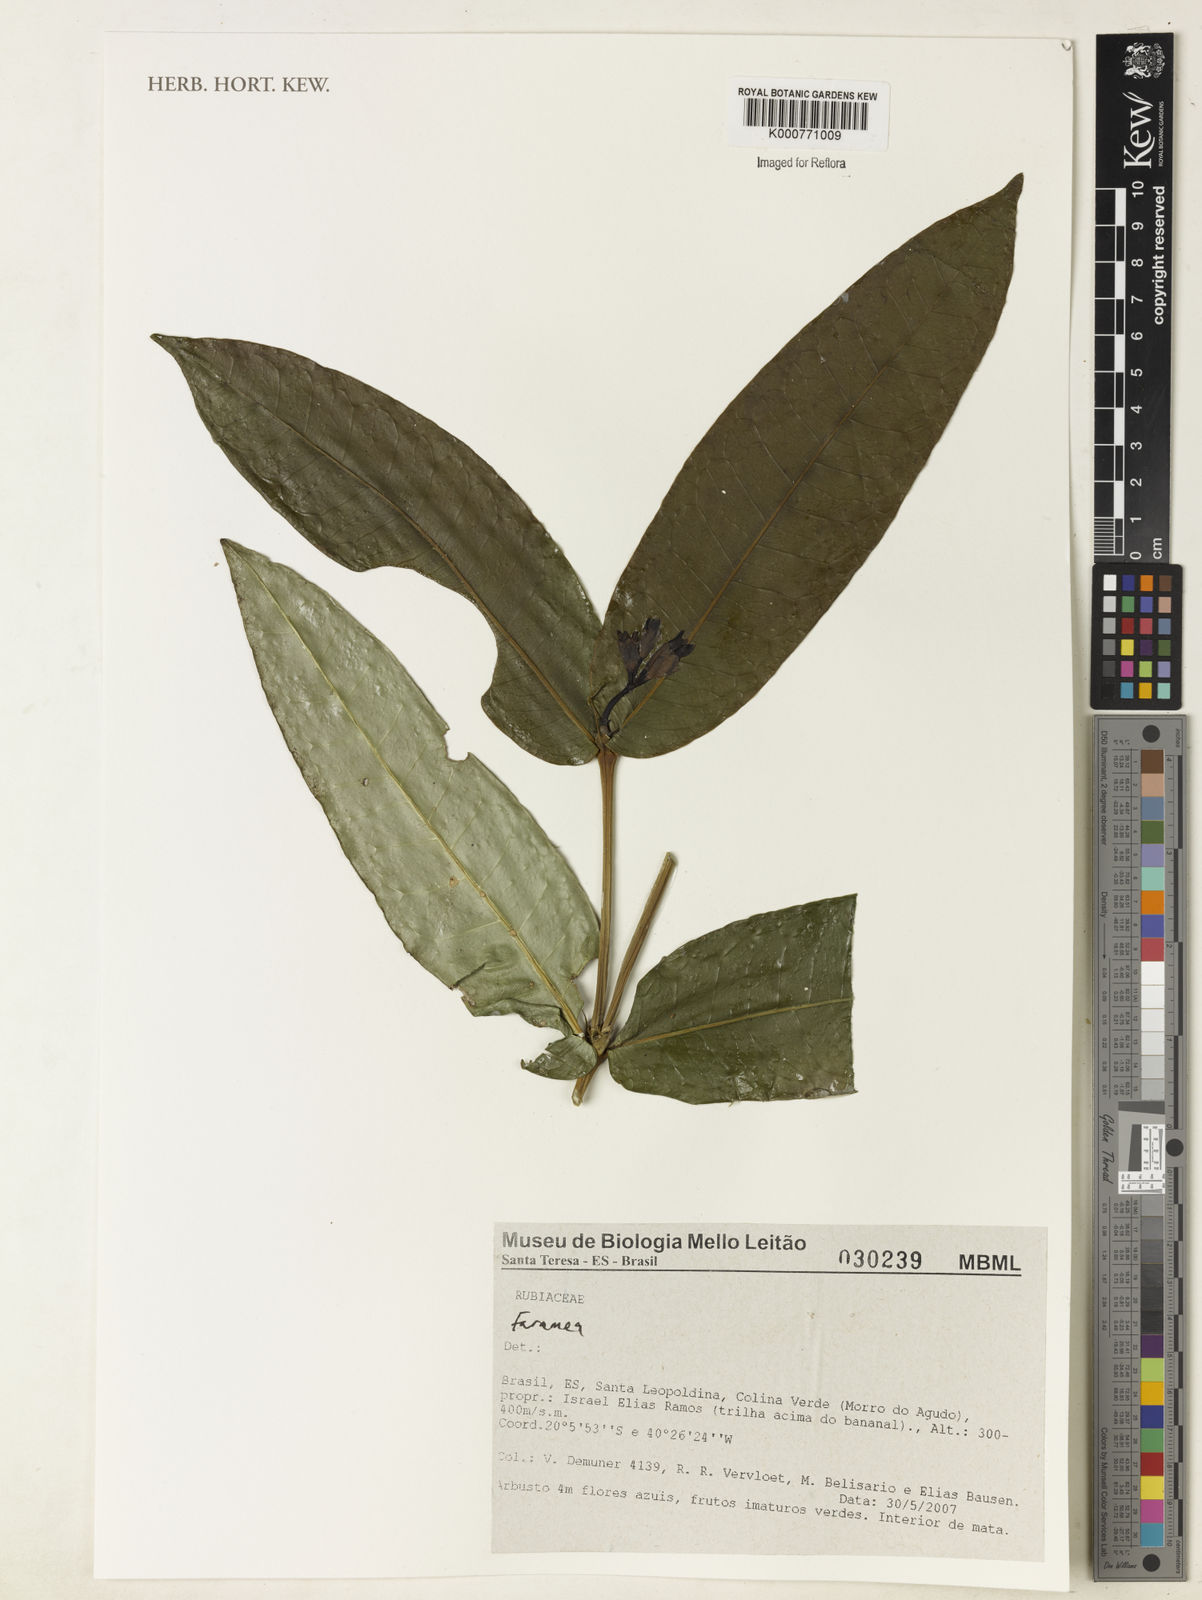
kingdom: Plantae
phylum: Tracheophyta
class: Magnoliopsida
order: Gentianales
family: Rubiaceae
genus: Faramea
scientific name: Faramea
